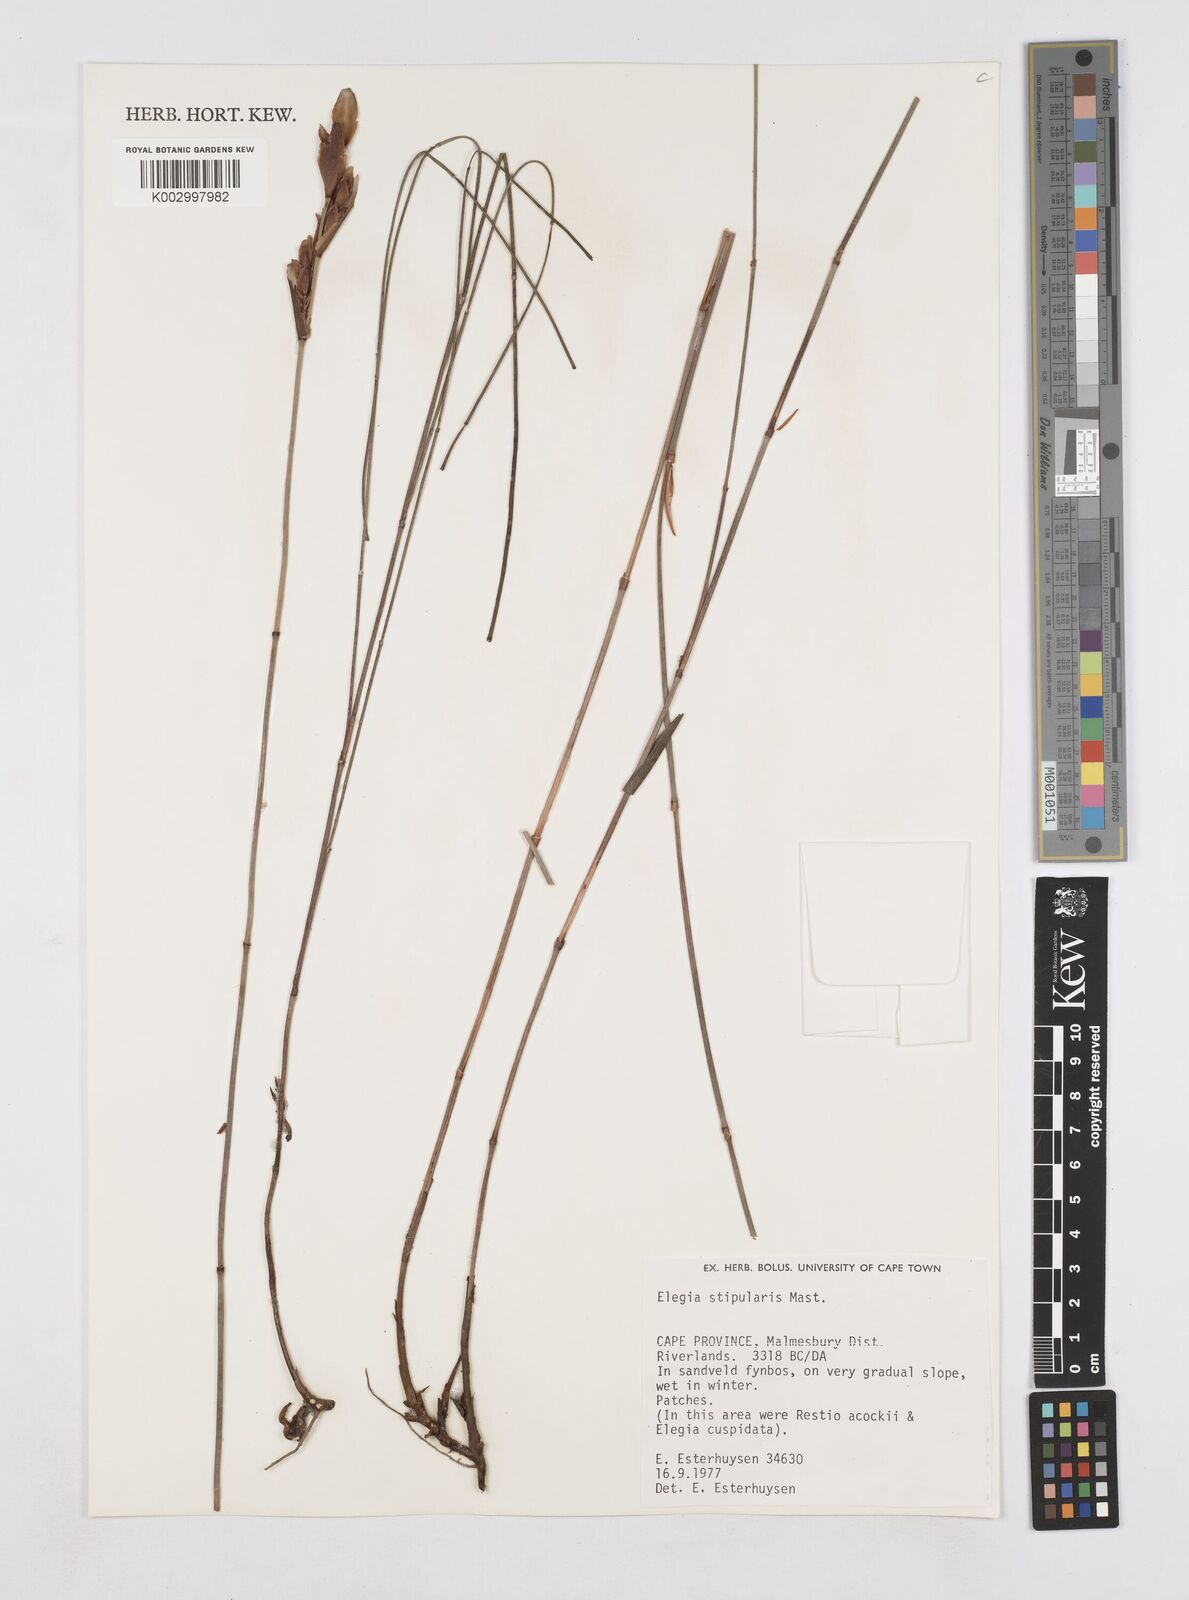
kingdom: Plantae
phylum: Tracheophyta
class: Liliopsida
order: Poales
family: Restionaceae
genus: Elegia
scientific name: Elegia stipularis
